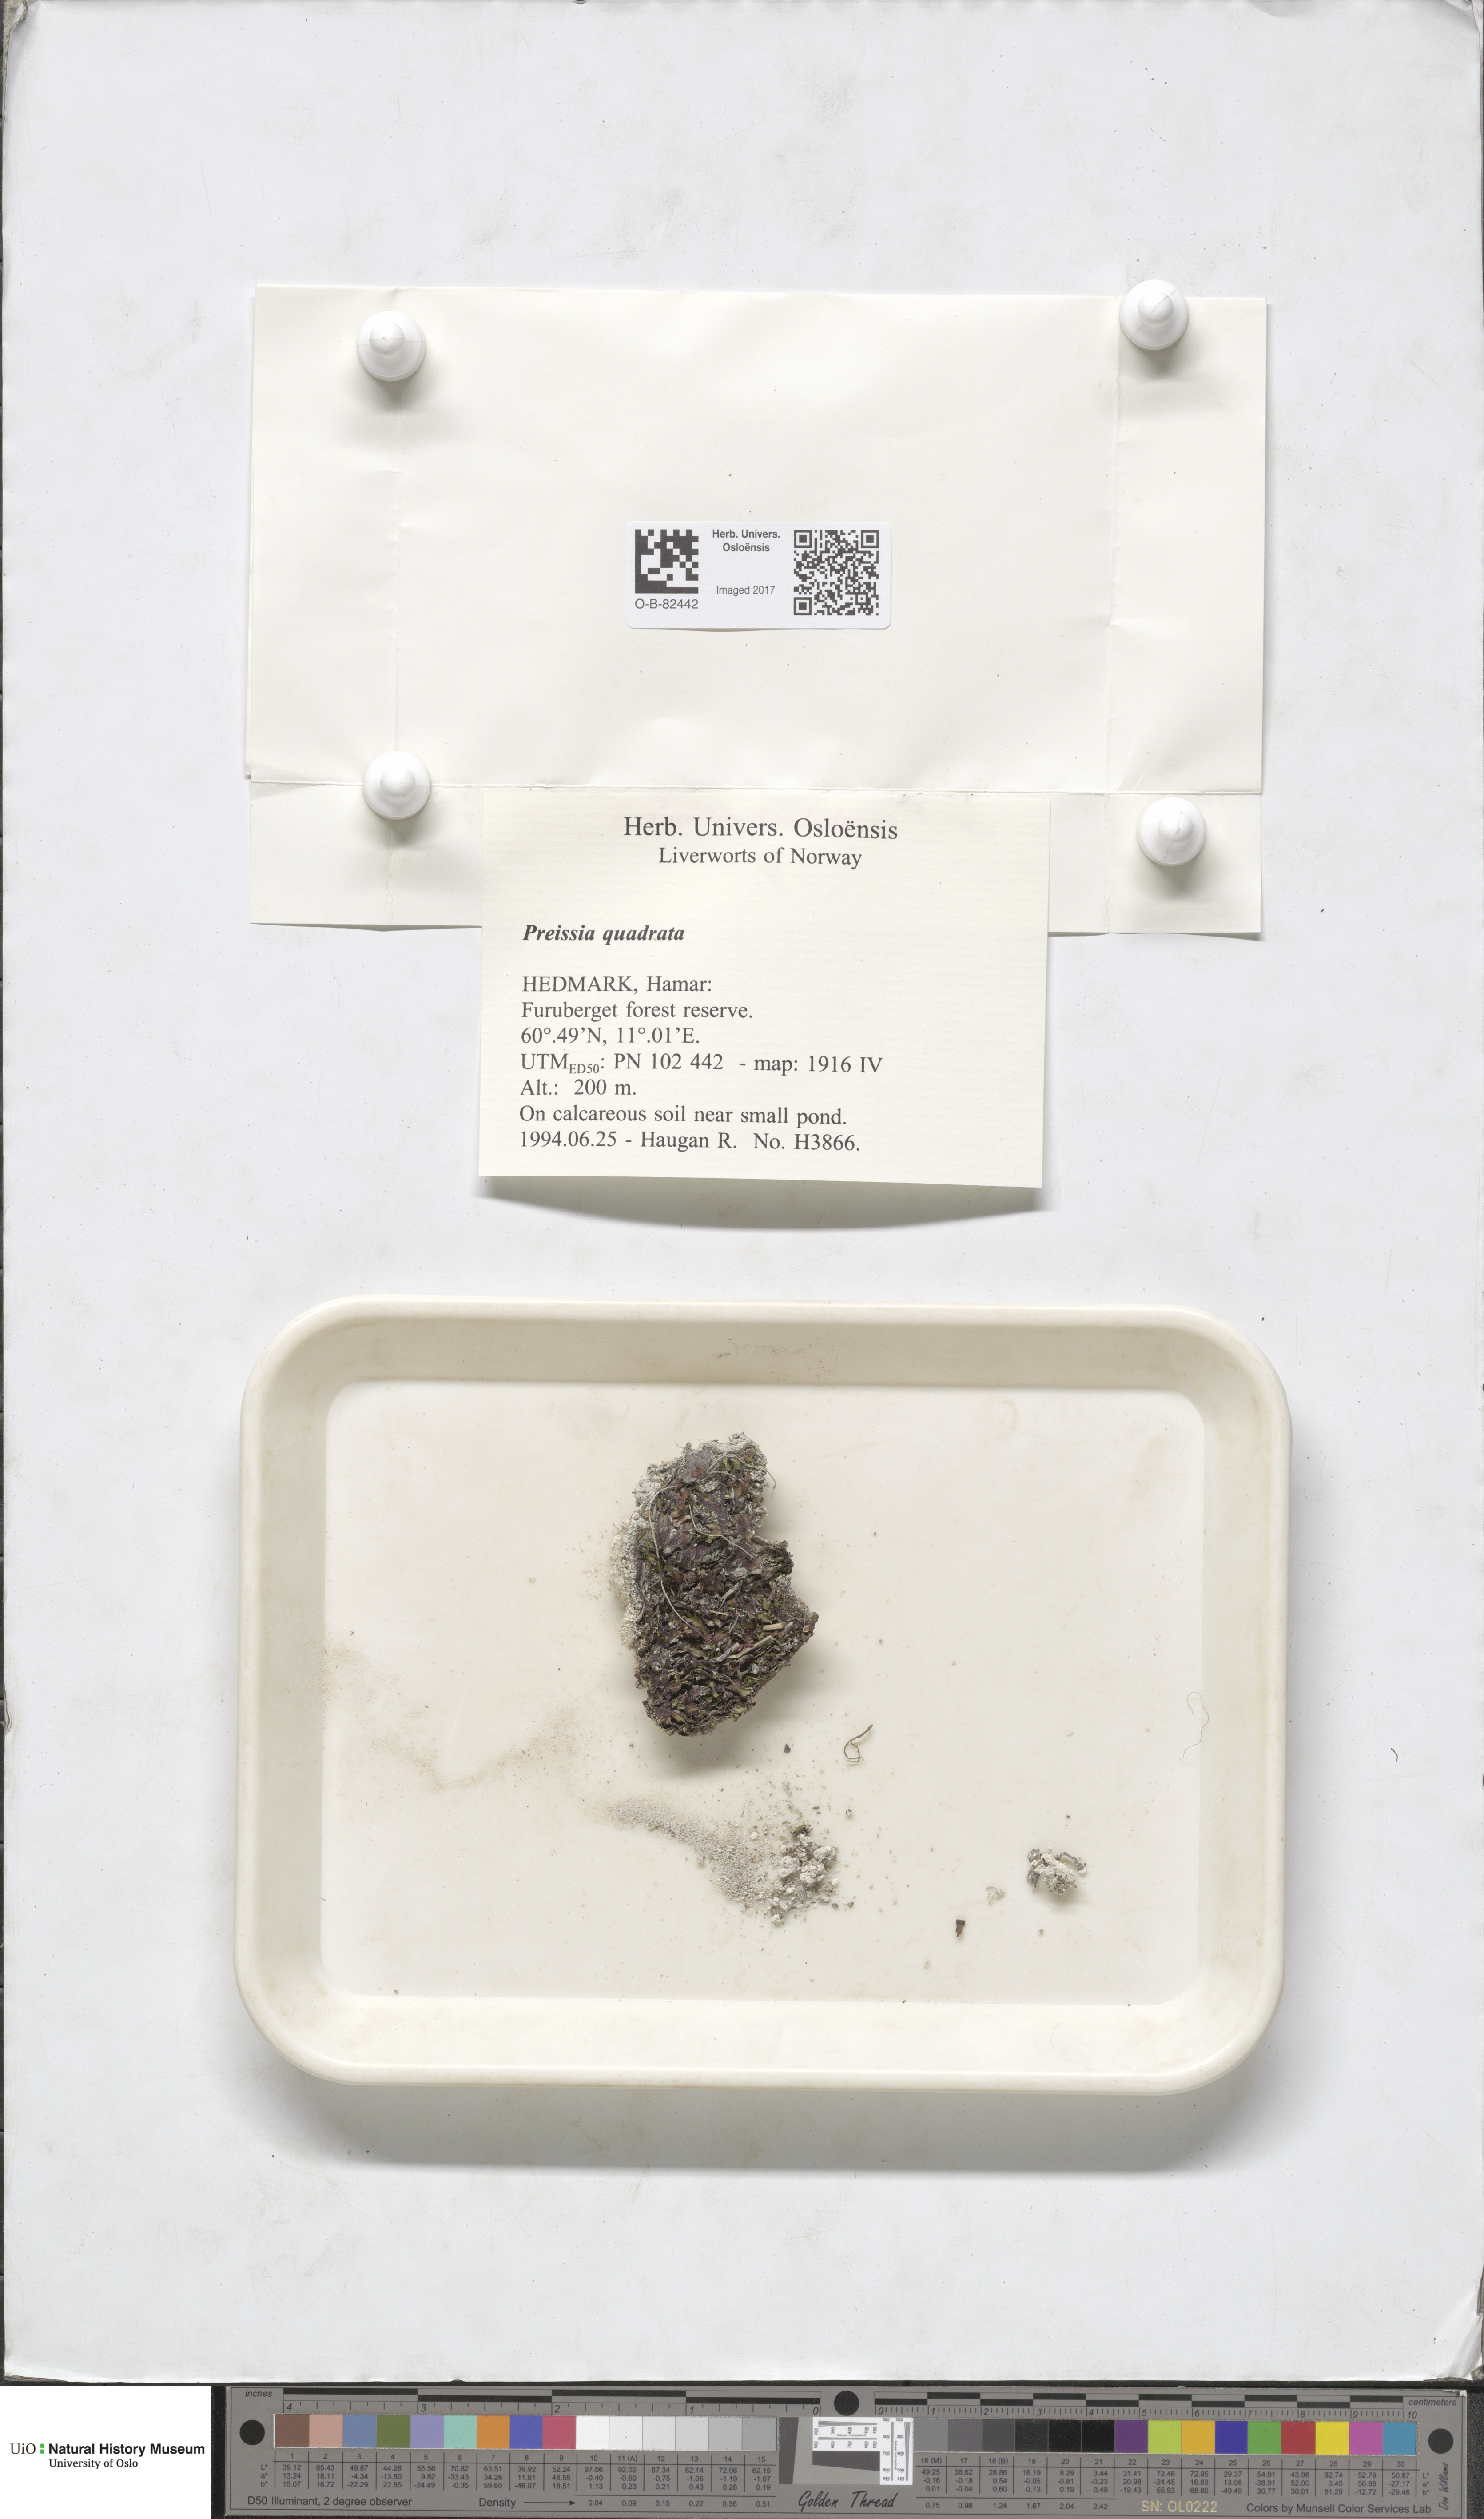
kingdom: Plantae
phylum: Marchantiophyta
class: Marchantiopsida
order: Marchantiales
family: Marchantiaceae
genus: Marchantia
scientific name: Marchantia quadrata
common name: Narrow mushroom-headed liverwort
